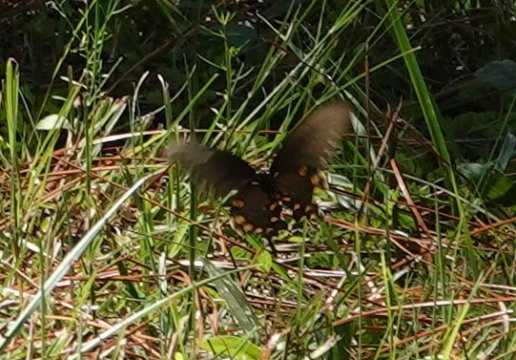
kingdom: Animalia
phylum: Arthropoda
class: Insecta
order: Lepidoptera
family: Papilionidae
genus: Battus
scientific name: Battus philenor
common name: Pipevine Swallowtail
